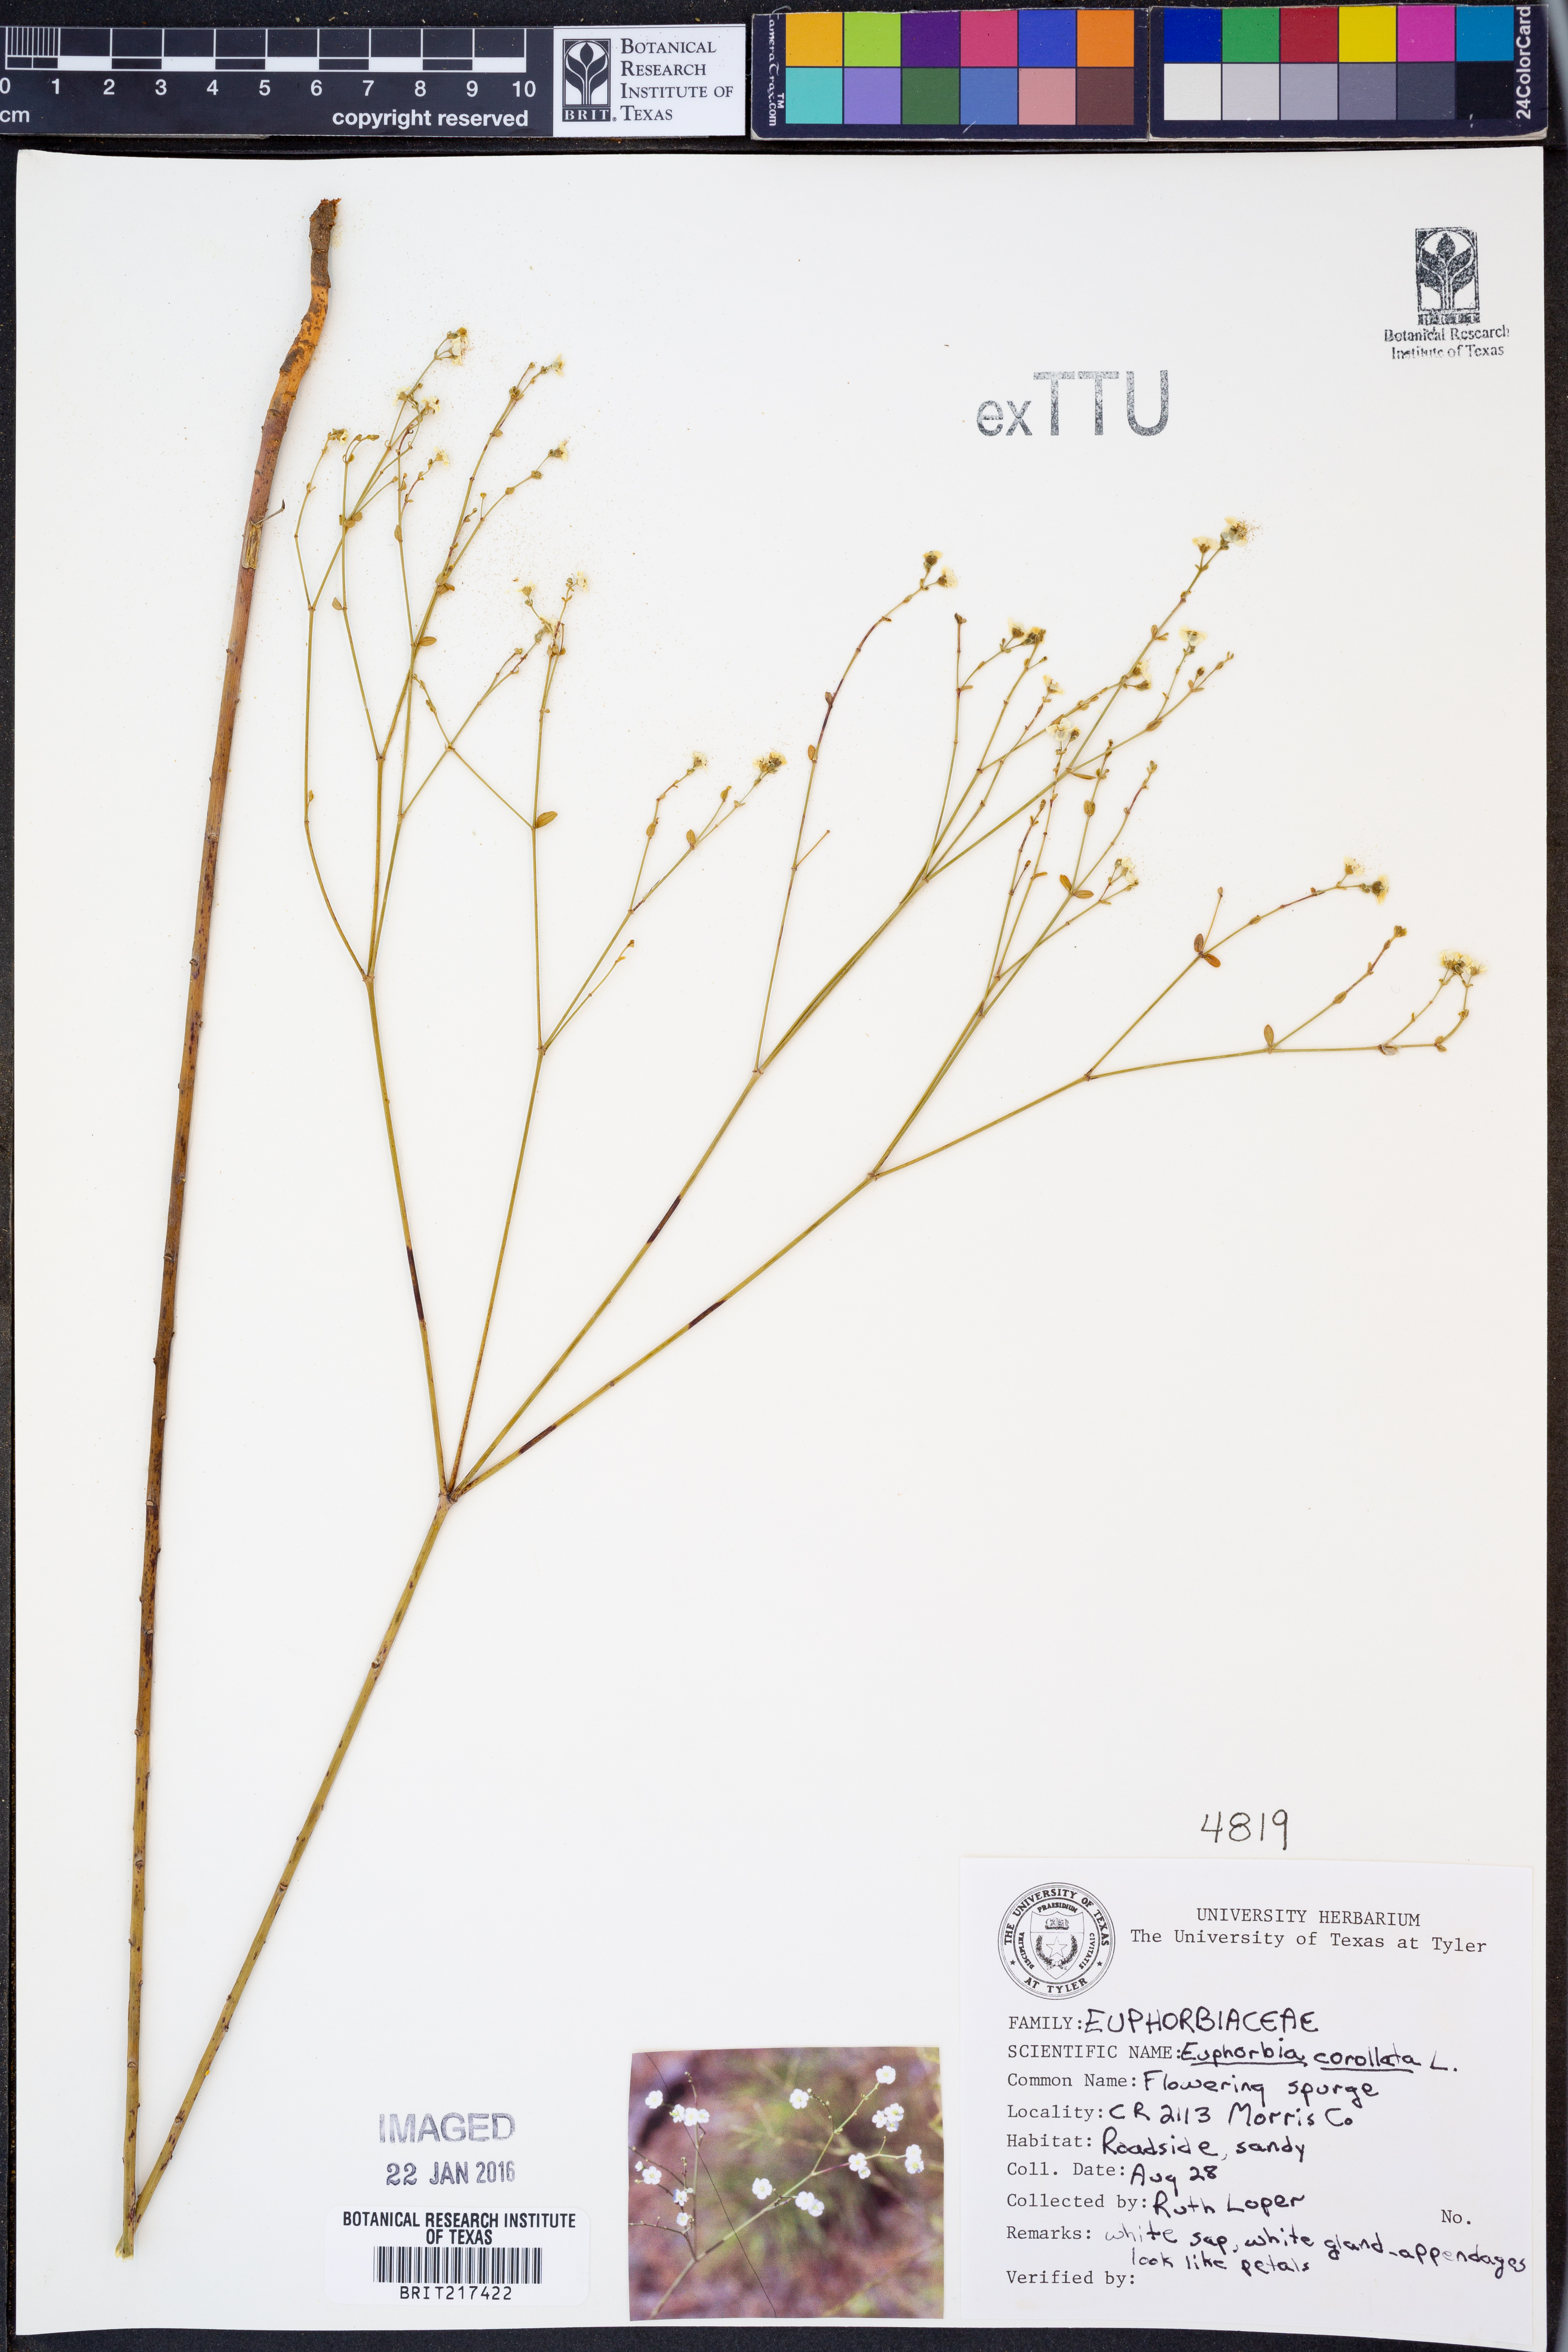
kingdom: Plantae
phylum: Tracheophyta
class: Magnoliopsida
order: Malpighiales
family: Euphorbiaceae
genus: Euphorbia
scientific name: Euphorbia corollata
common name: Flowering spurge
